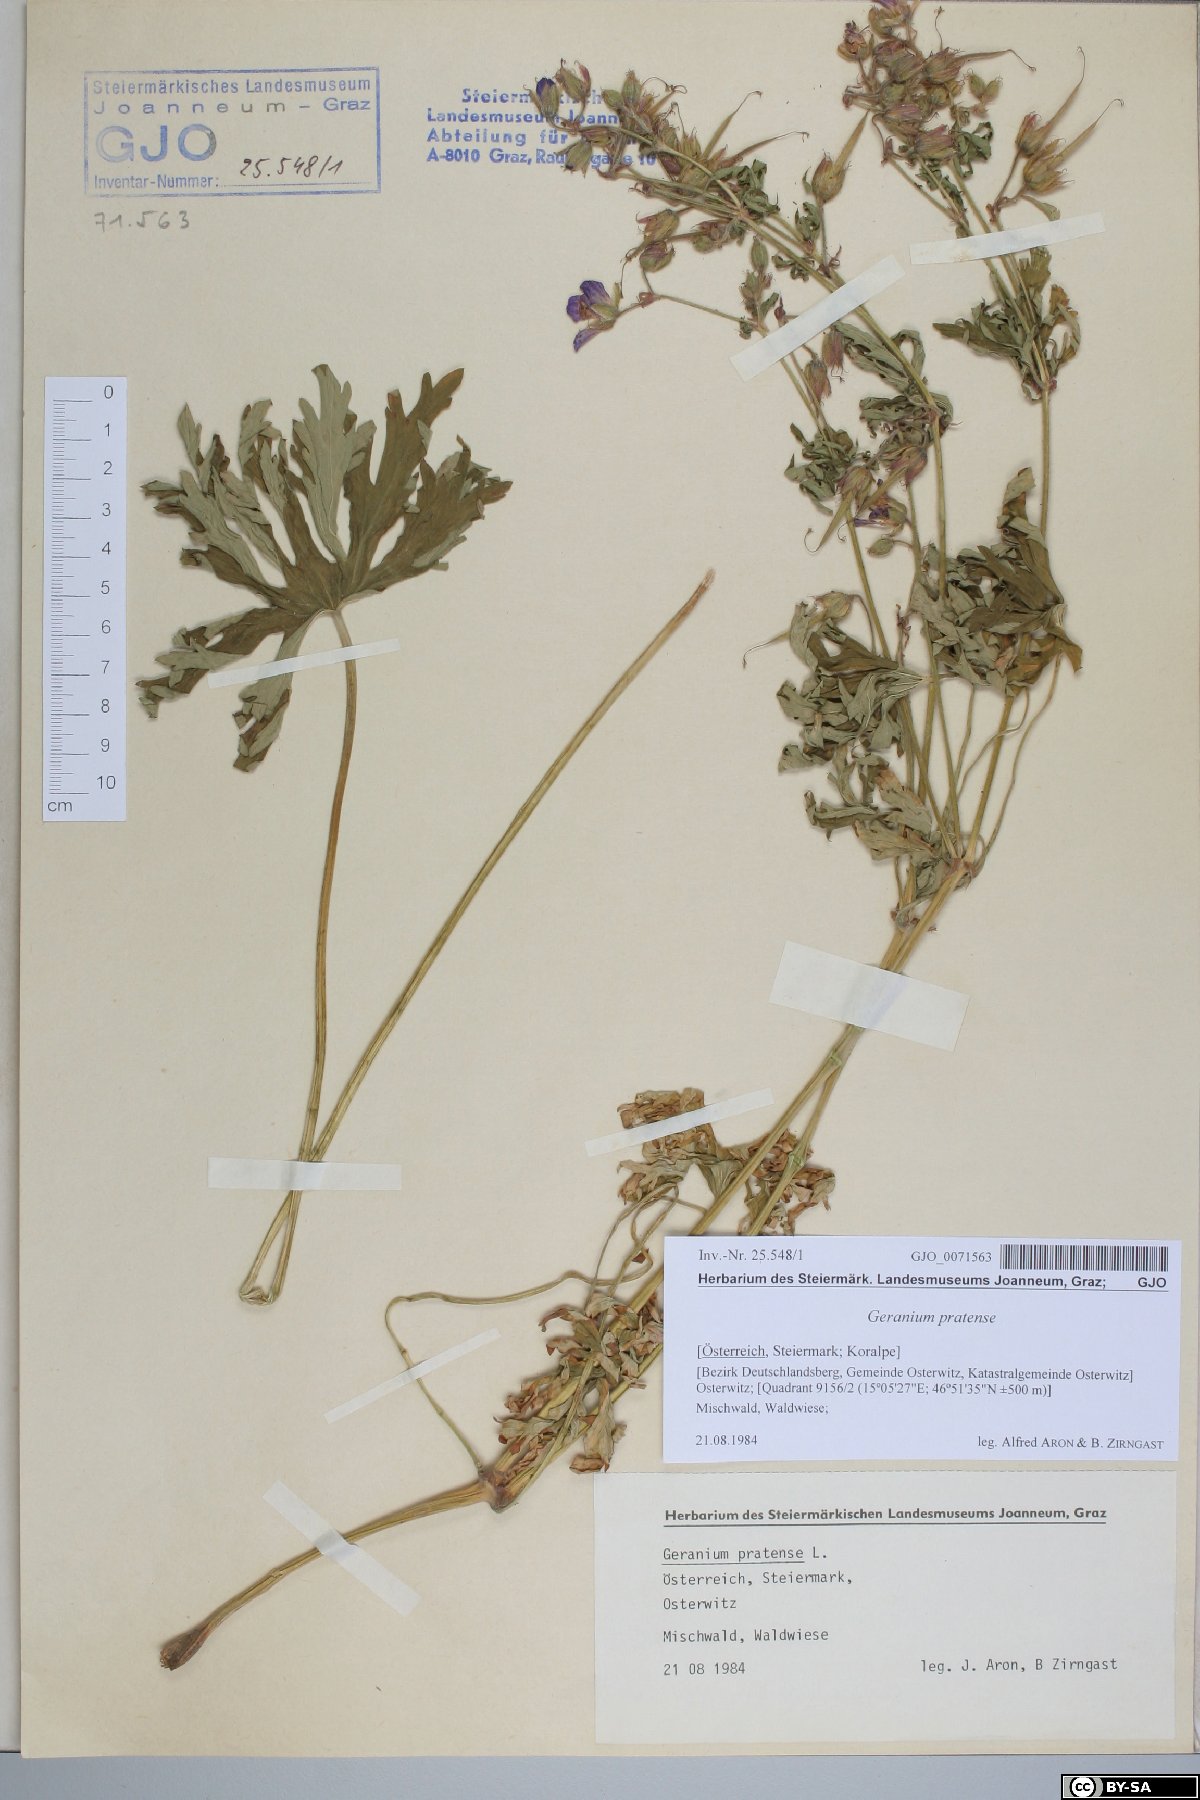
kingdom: Plantae
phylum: Tracheophyta
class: Magnoliopsida
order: Geraniales
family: Geraniaceae
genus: Geranium
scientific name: Geranium pratense
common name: Meadow crane's-bill
